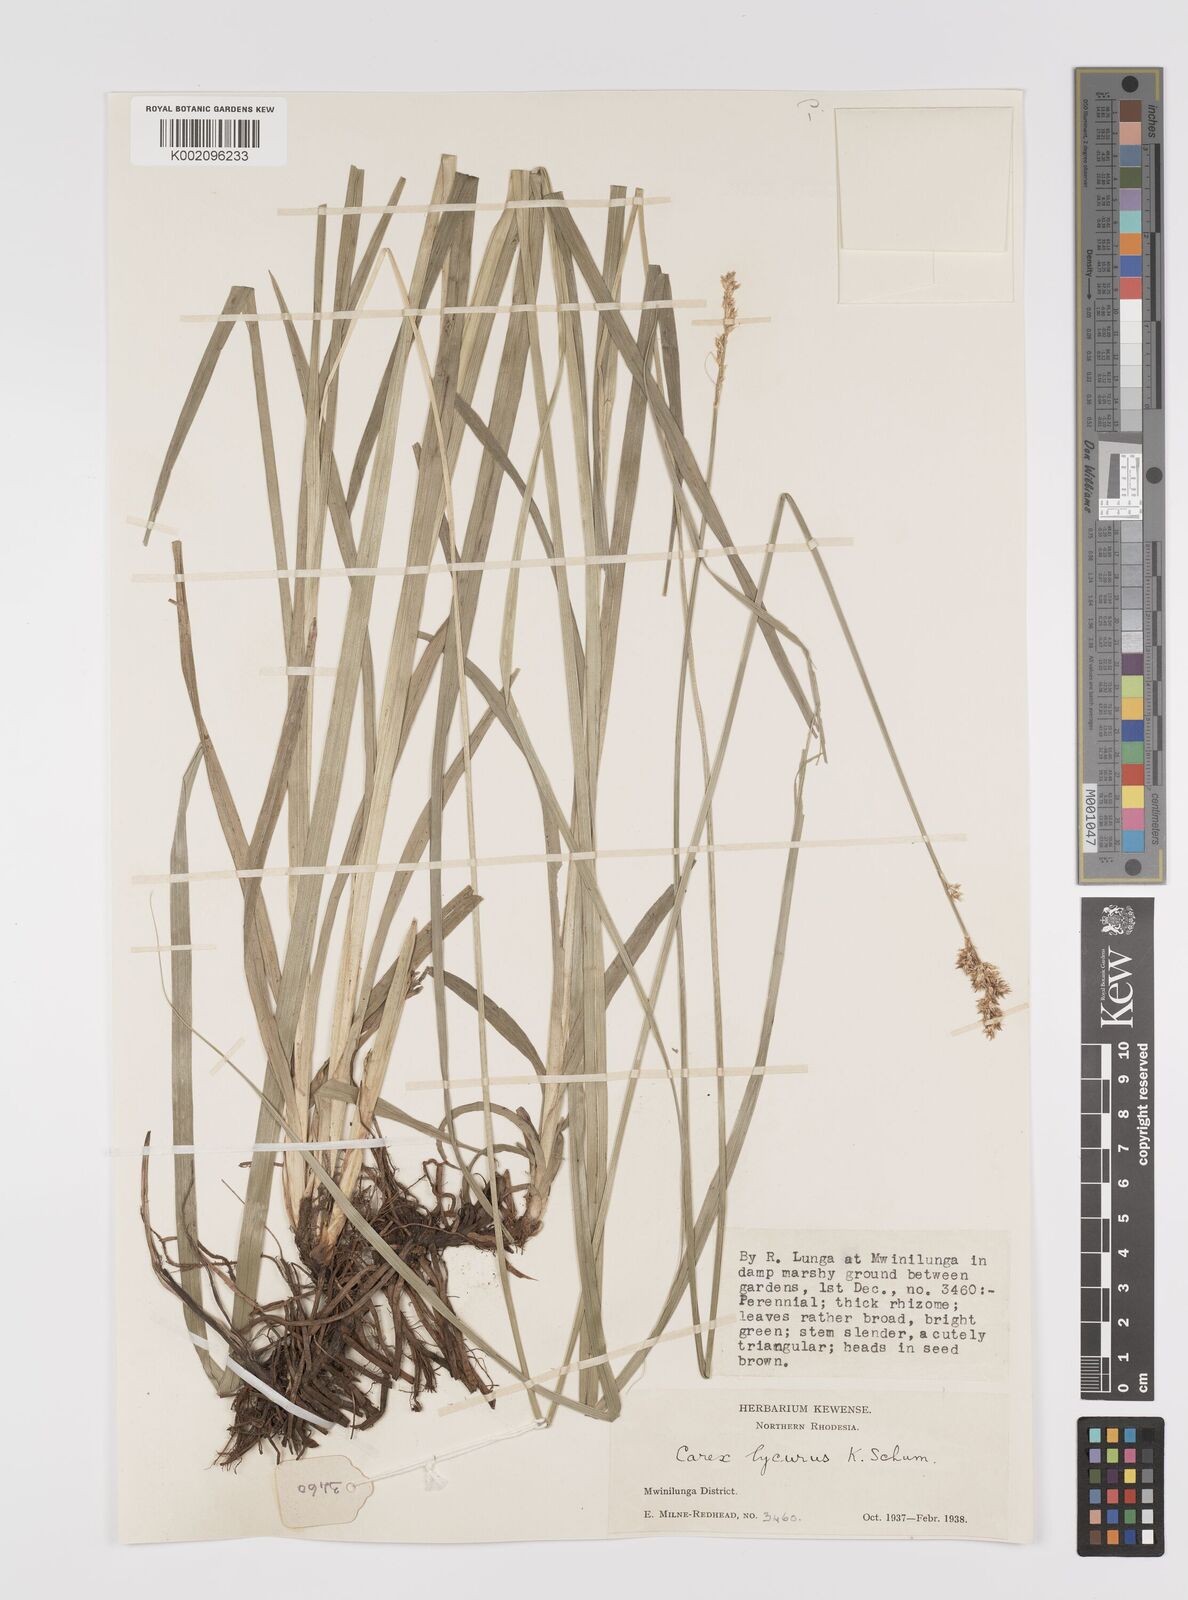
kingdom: Plantae
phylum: Tracheophyta
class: Liliopsida
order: Poales
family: Cyperaceae
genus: Carex
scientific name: Carex lycurus
